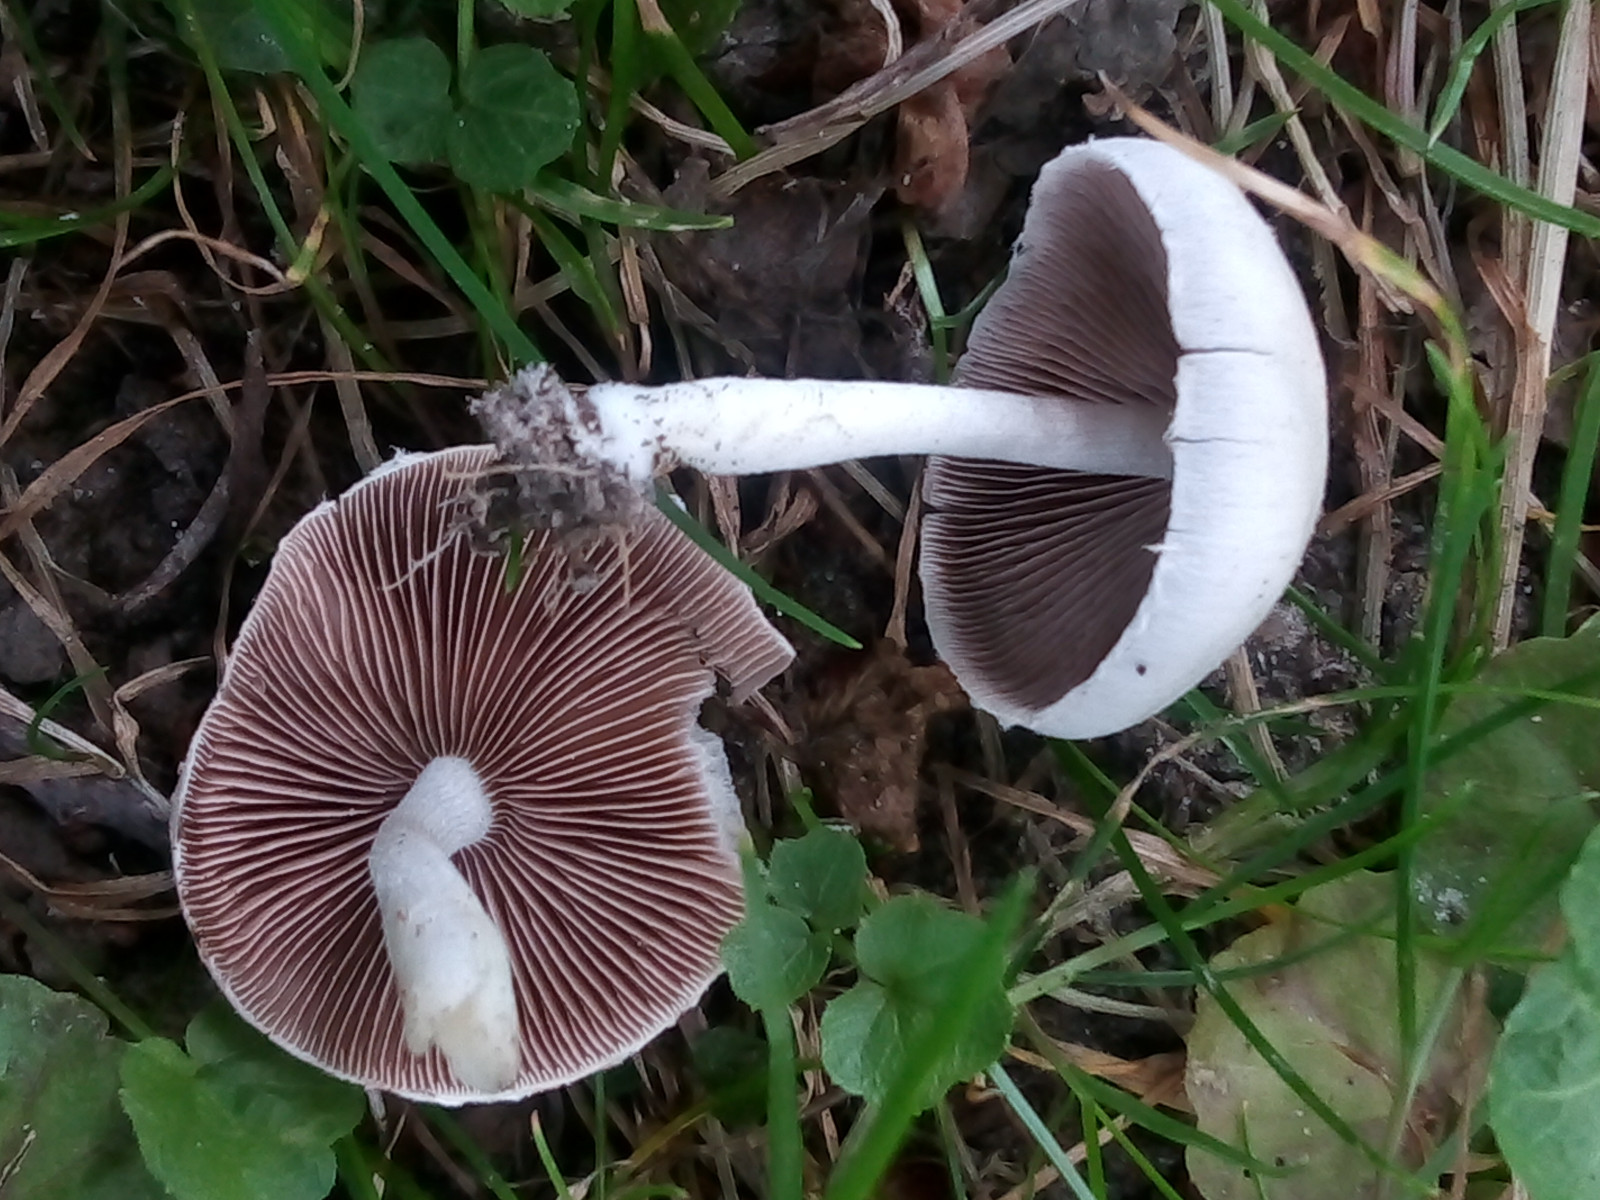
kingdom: Fungi
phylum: Basidiomycota
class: Agaricomycetes
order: Agaricales
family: Psathyrellaceae
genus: Candolleomyces
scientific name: Candolleomyces candolleanus
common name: Candolles mørkhat
